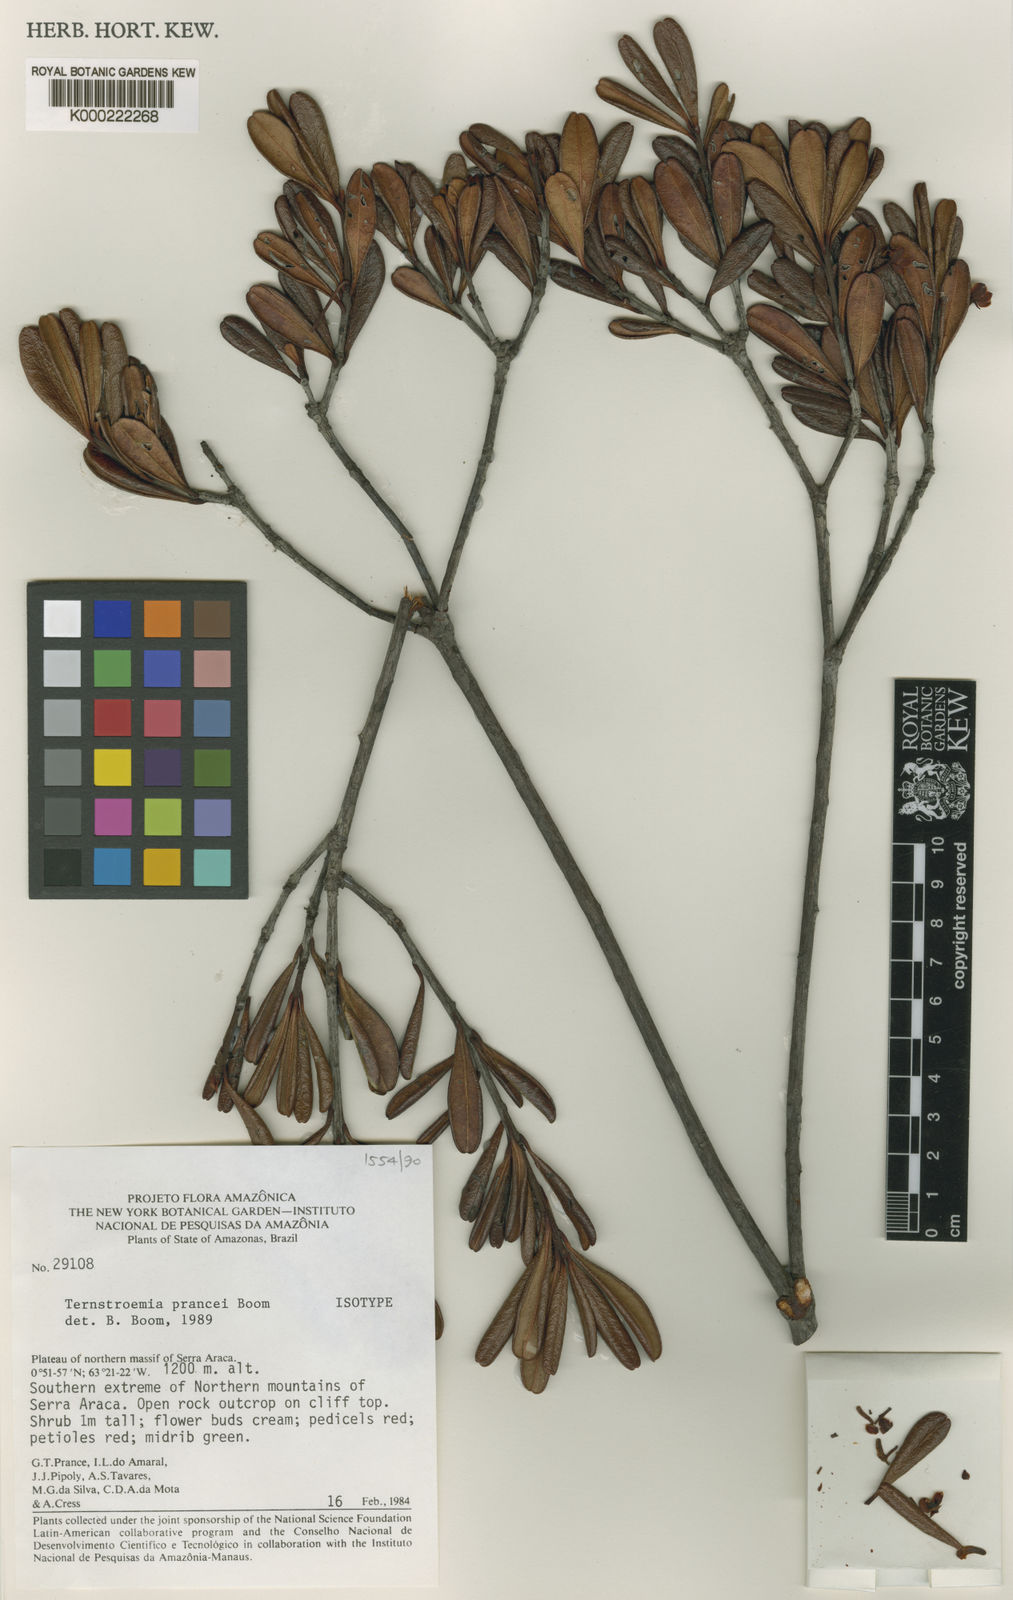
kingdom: Plantae
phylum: Tracheophyta
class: Magnoliopsida
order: Ericales
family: Pentaphylacaceae
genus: Ternstroemia
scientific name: Ternstroemia prancei
